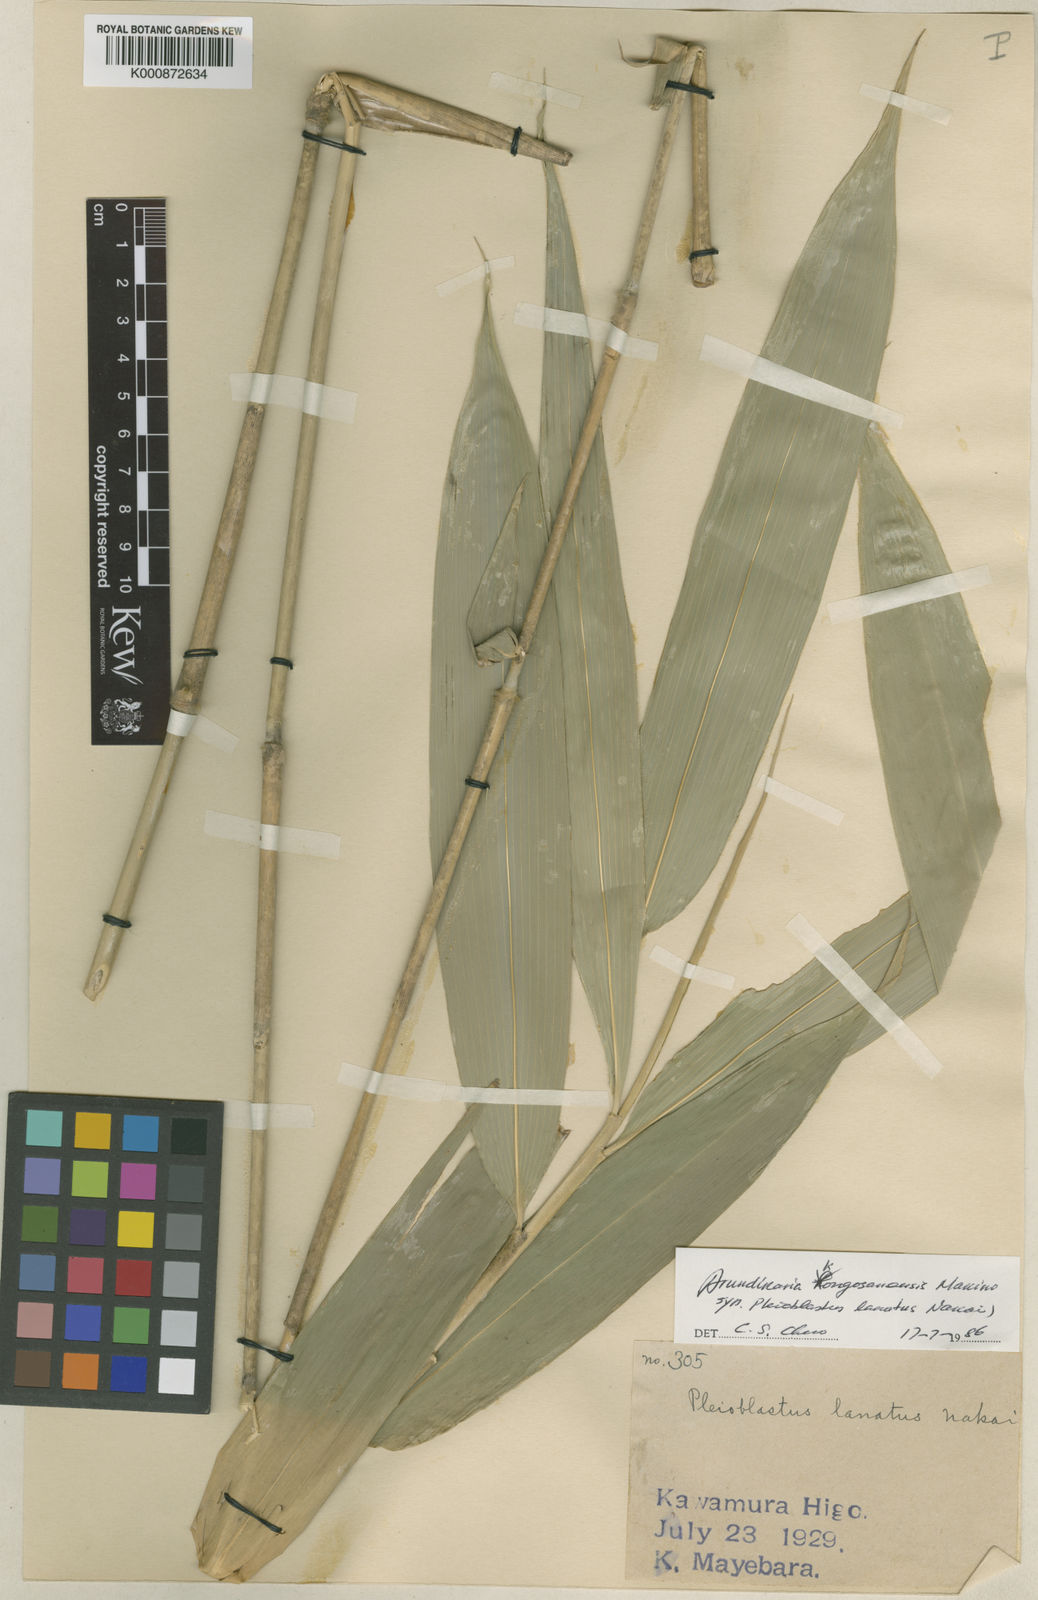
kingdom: Plantae
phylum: Tracheophyta
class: Liliopsida
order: Poales
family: Poaceae
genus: Pleioblastus
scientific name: Pleioblastus viridistriatus
